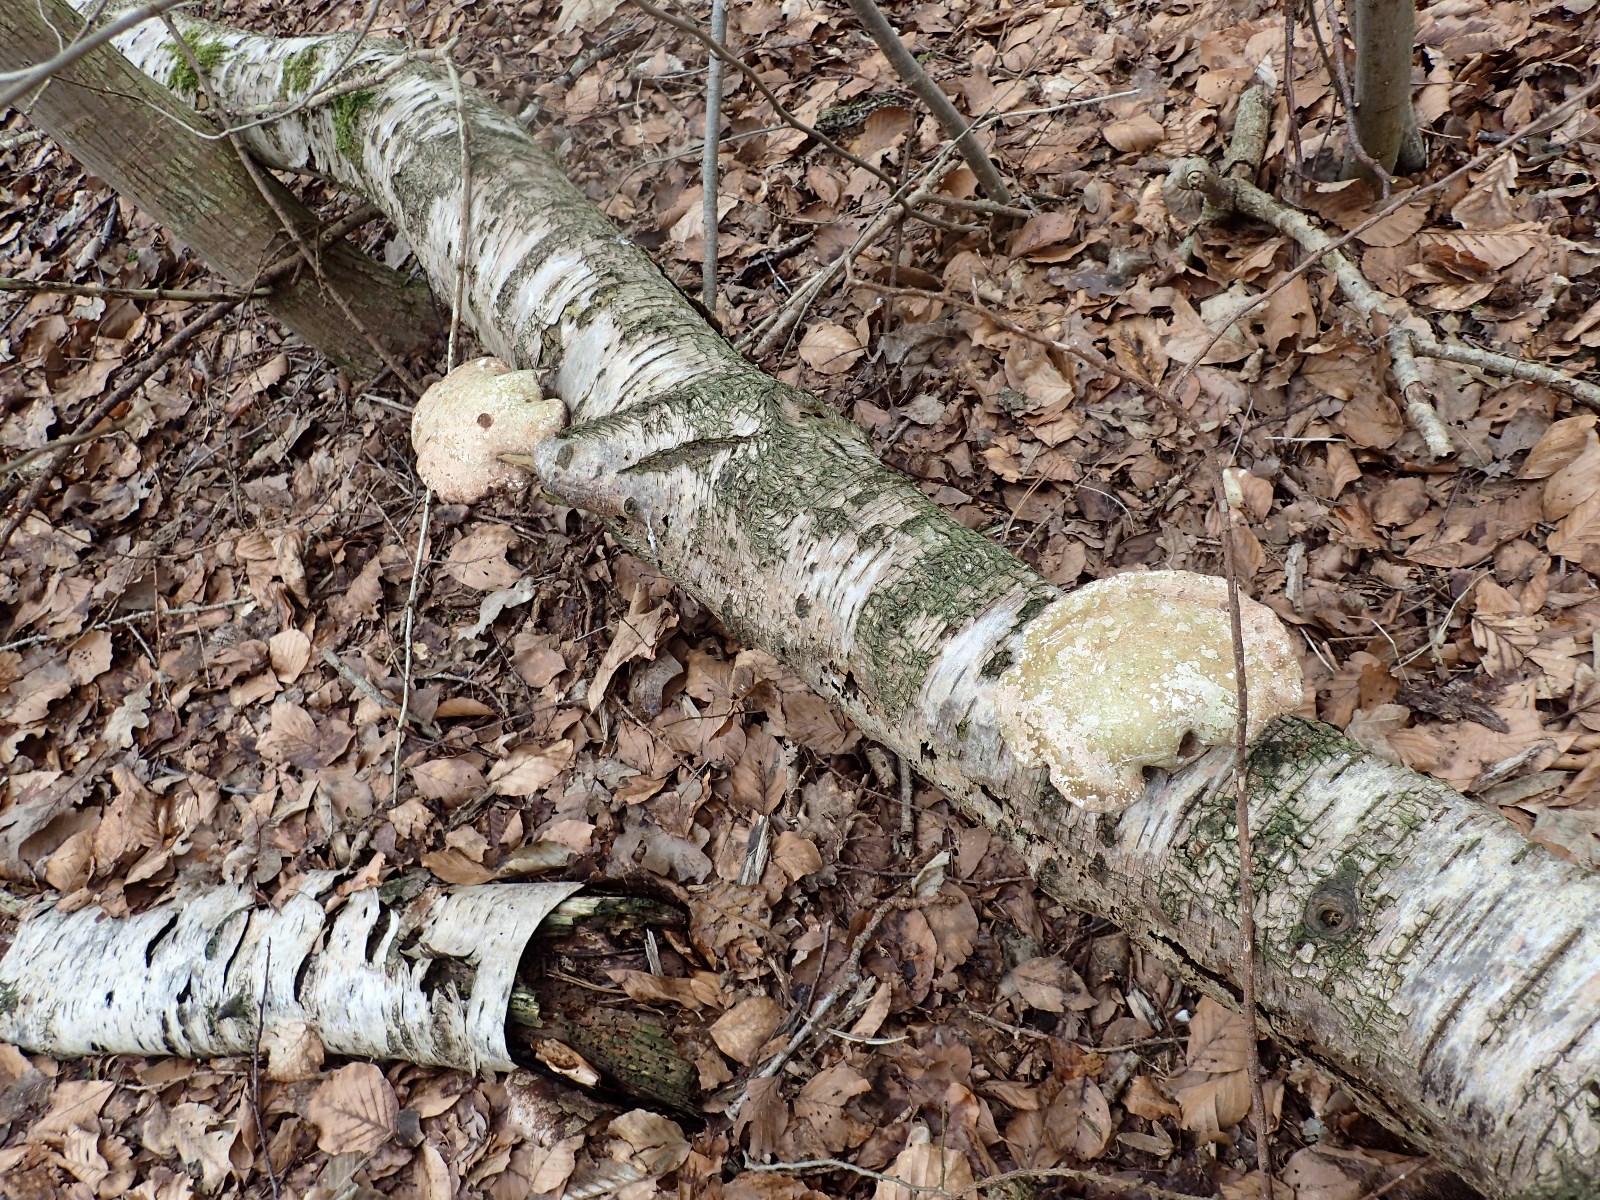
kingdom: Fungi
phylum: Basidiomycota
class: Agaricomycetes
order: Polyporales
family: Fomitopsidaceae
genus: Fomitopsis
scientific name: Fomitopsis betulina
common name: birkeporesvamp
